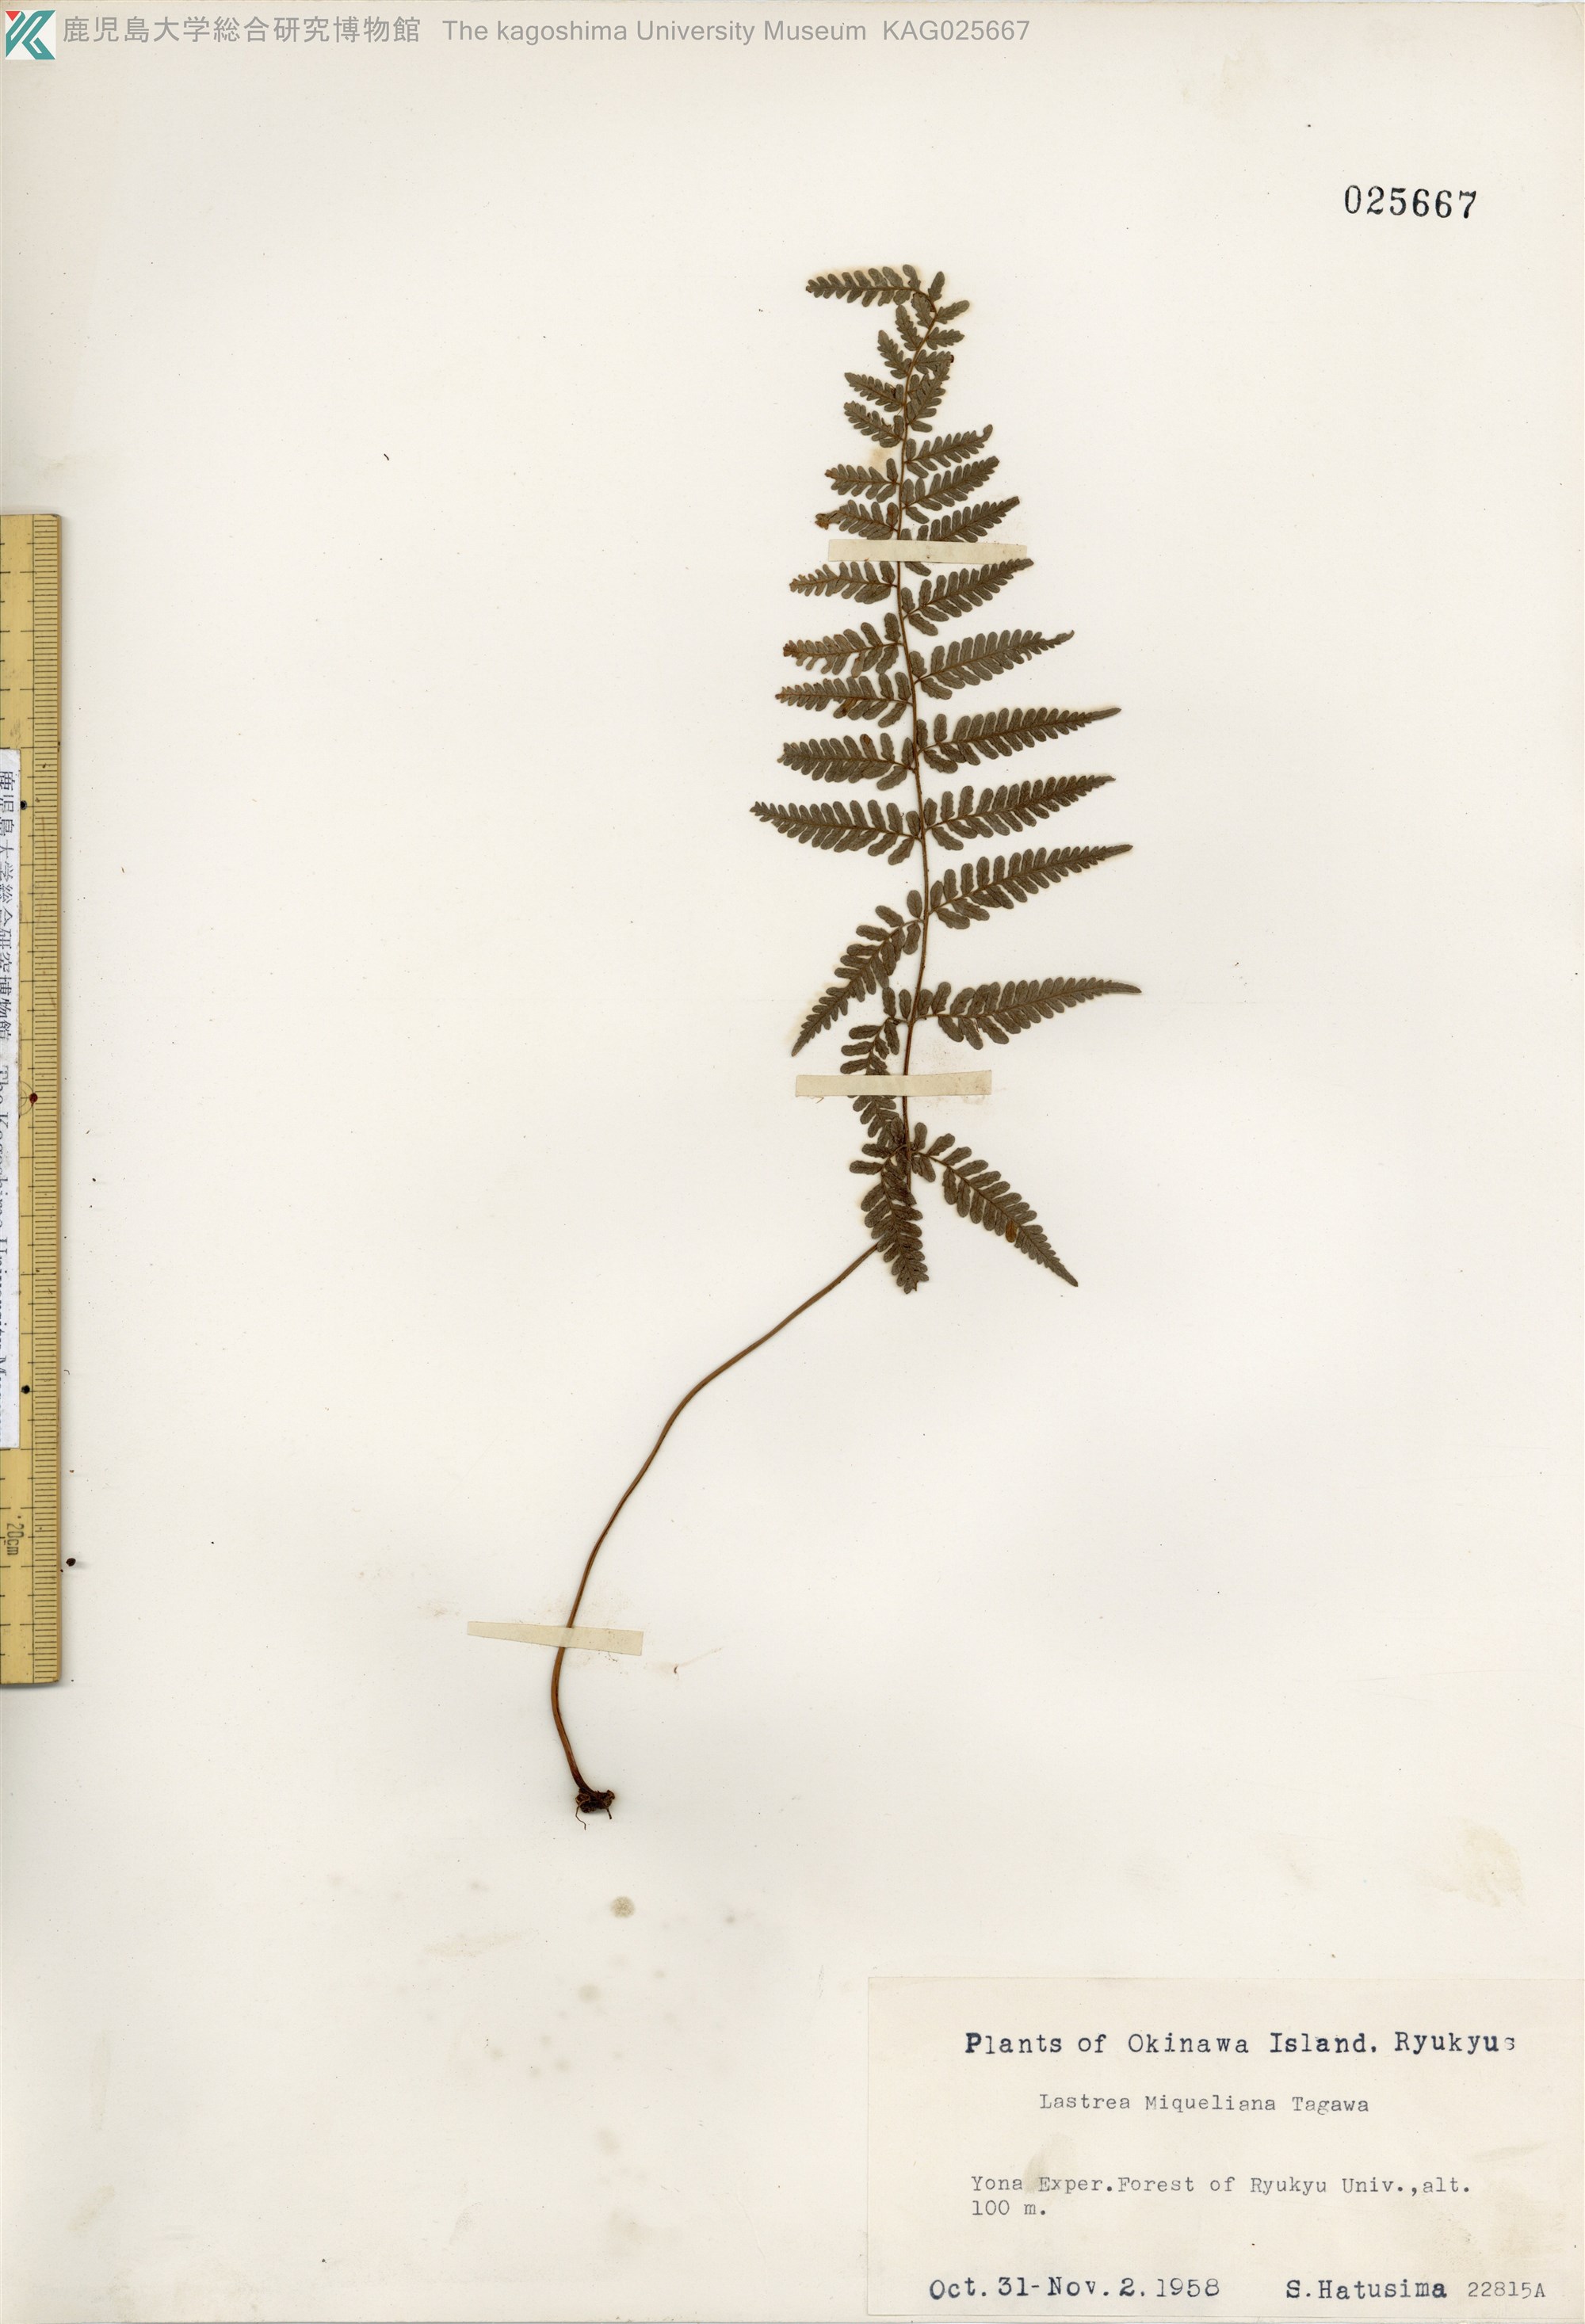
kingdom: Plantae
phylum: Tracheophyta
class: Polypodiopsida
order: Polypodiales
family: Thelypteridaceae
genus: Amauropelta
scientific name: Amauropelta angustifrons
